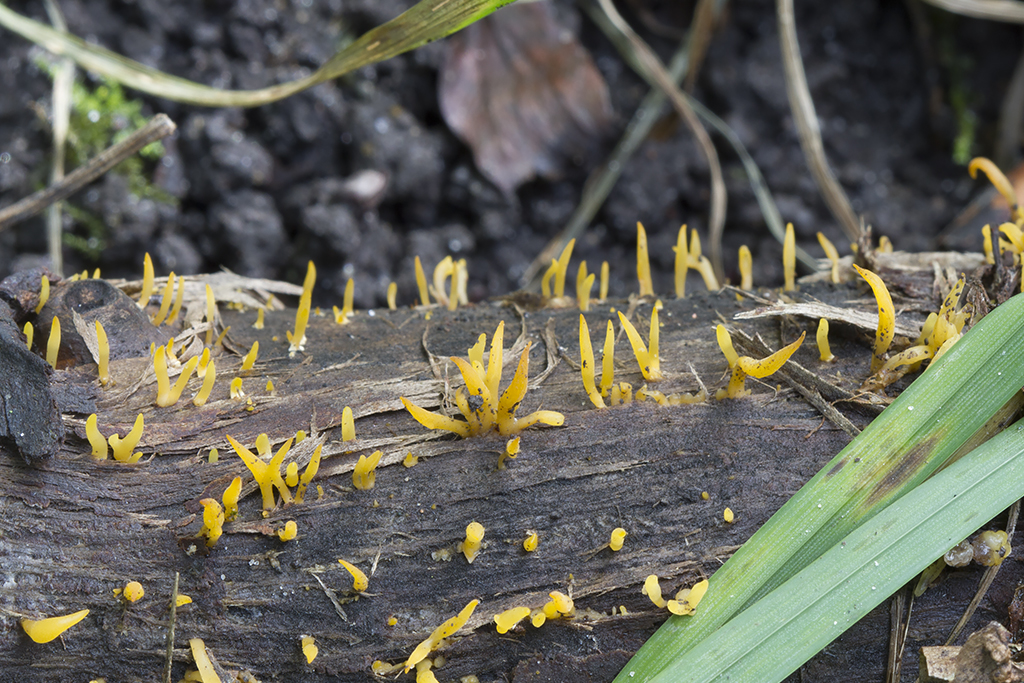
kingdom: Fungi
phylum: Basidiomycota
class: Dacrymycetes
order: Dacrymycetales
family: Dacrymycetaceae
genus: Calocera
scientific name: Calocera cornea
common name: liden guldgaffel
